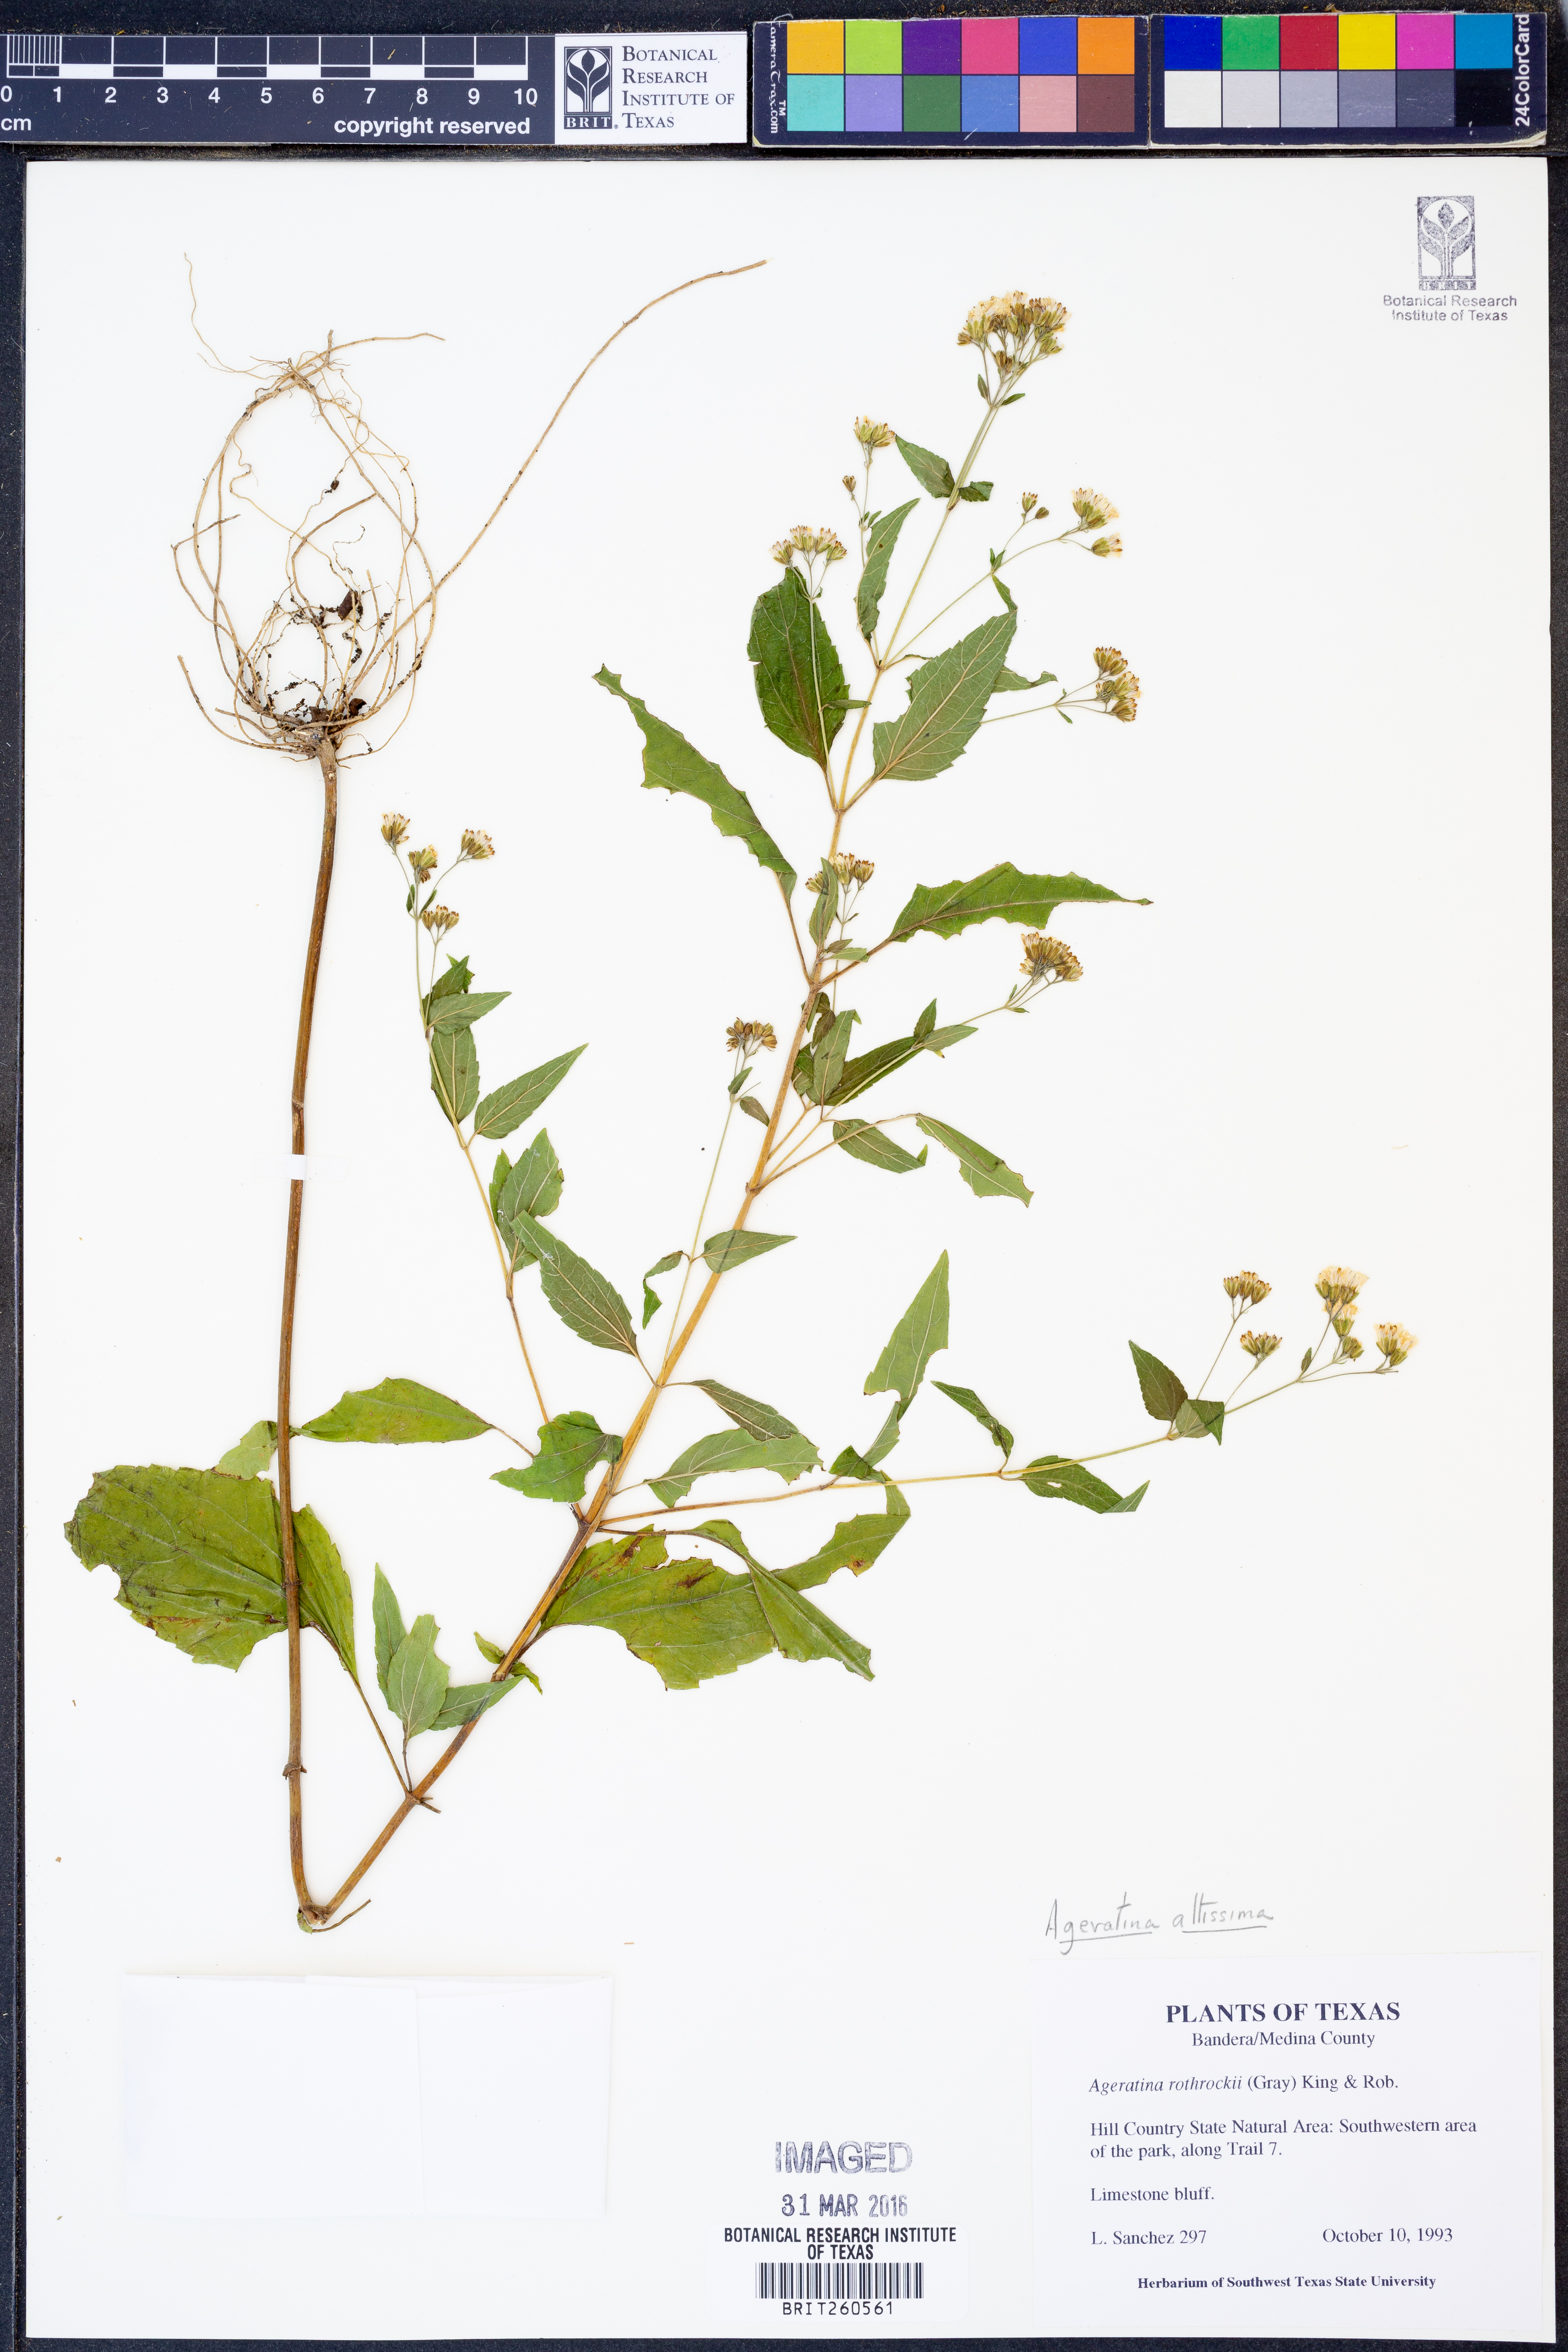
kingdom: Plantae
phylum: Tracheophyta
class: Magnoliopsida
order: Asterales
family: Asteraceae
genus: Ageratina
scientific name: Ageratina altissima
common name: White snakeroot
